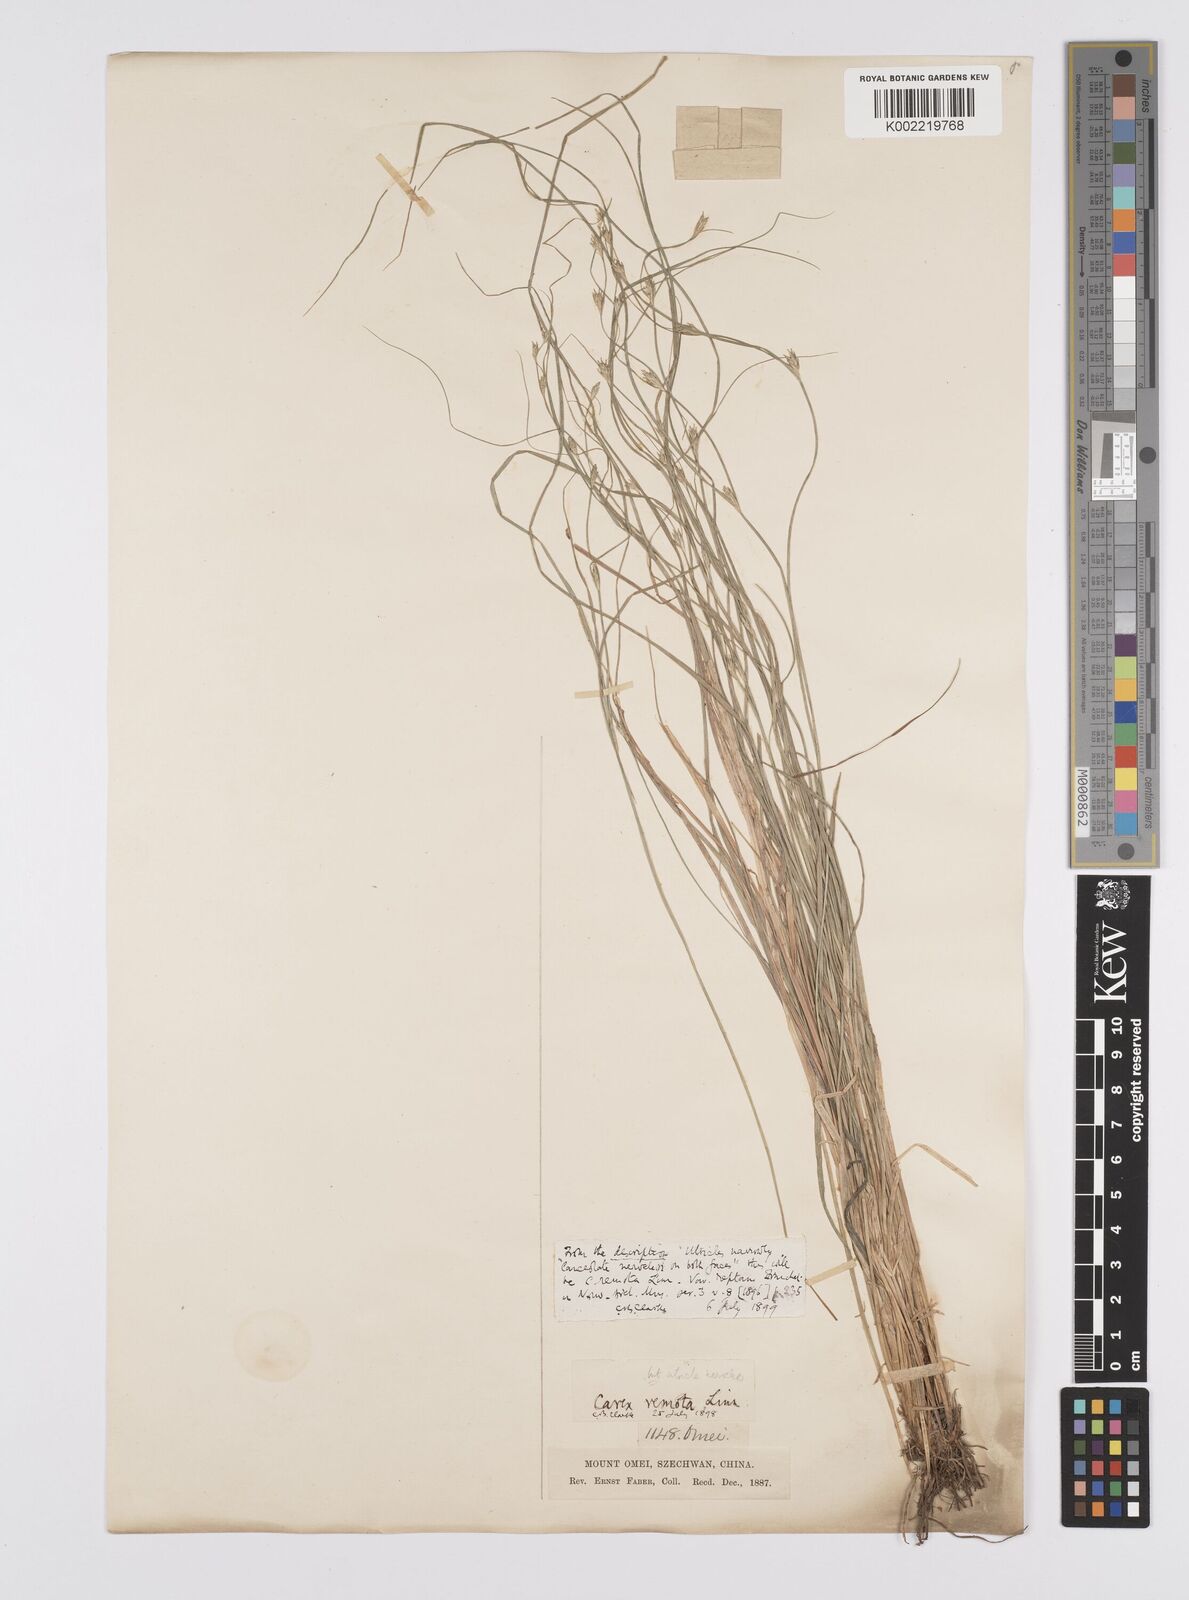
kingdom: Plantae
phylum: Tracheophyta
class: Liliopsida
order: Poales
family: Cyperaceae
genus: Carex
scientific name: Carex remota
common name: Remote sedge
